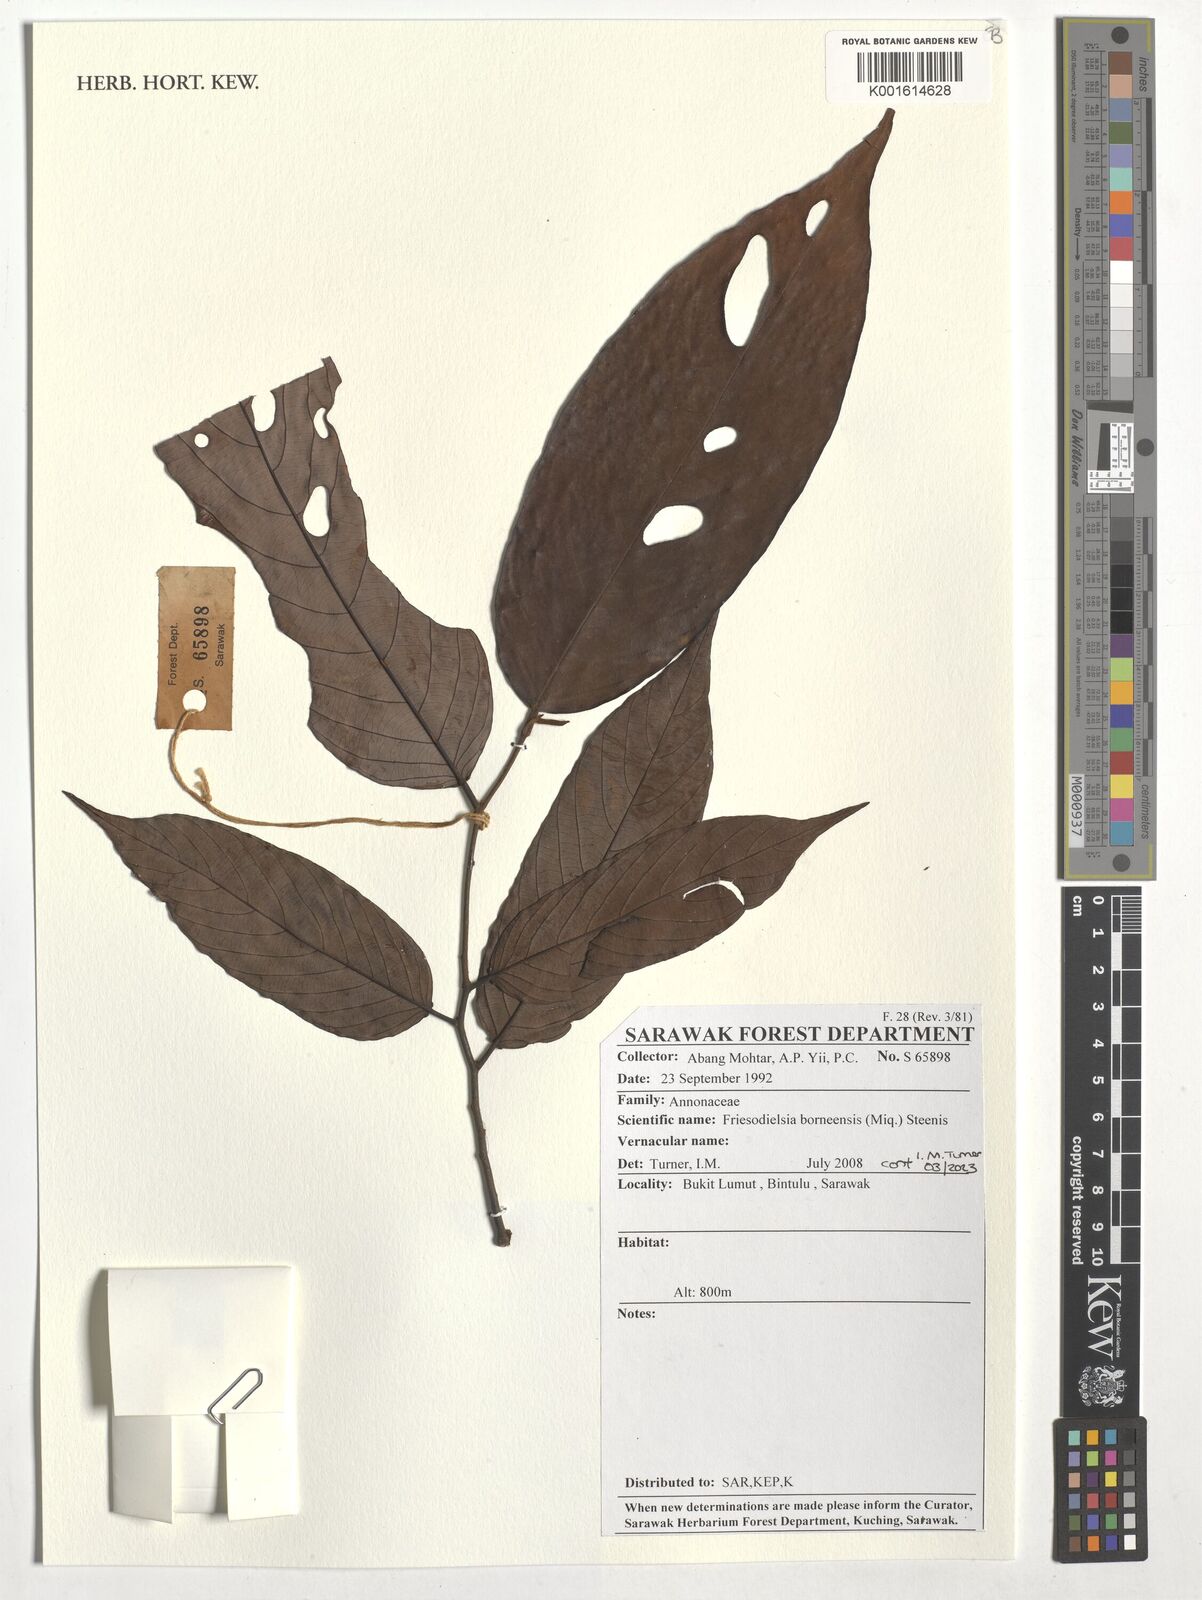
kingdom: Plantae
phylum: Tracheophyta
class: Magnoliopsida
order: Magnoliales
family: Annonaceae
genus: Friesodielsia
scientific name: Friesodielsia borneensis
